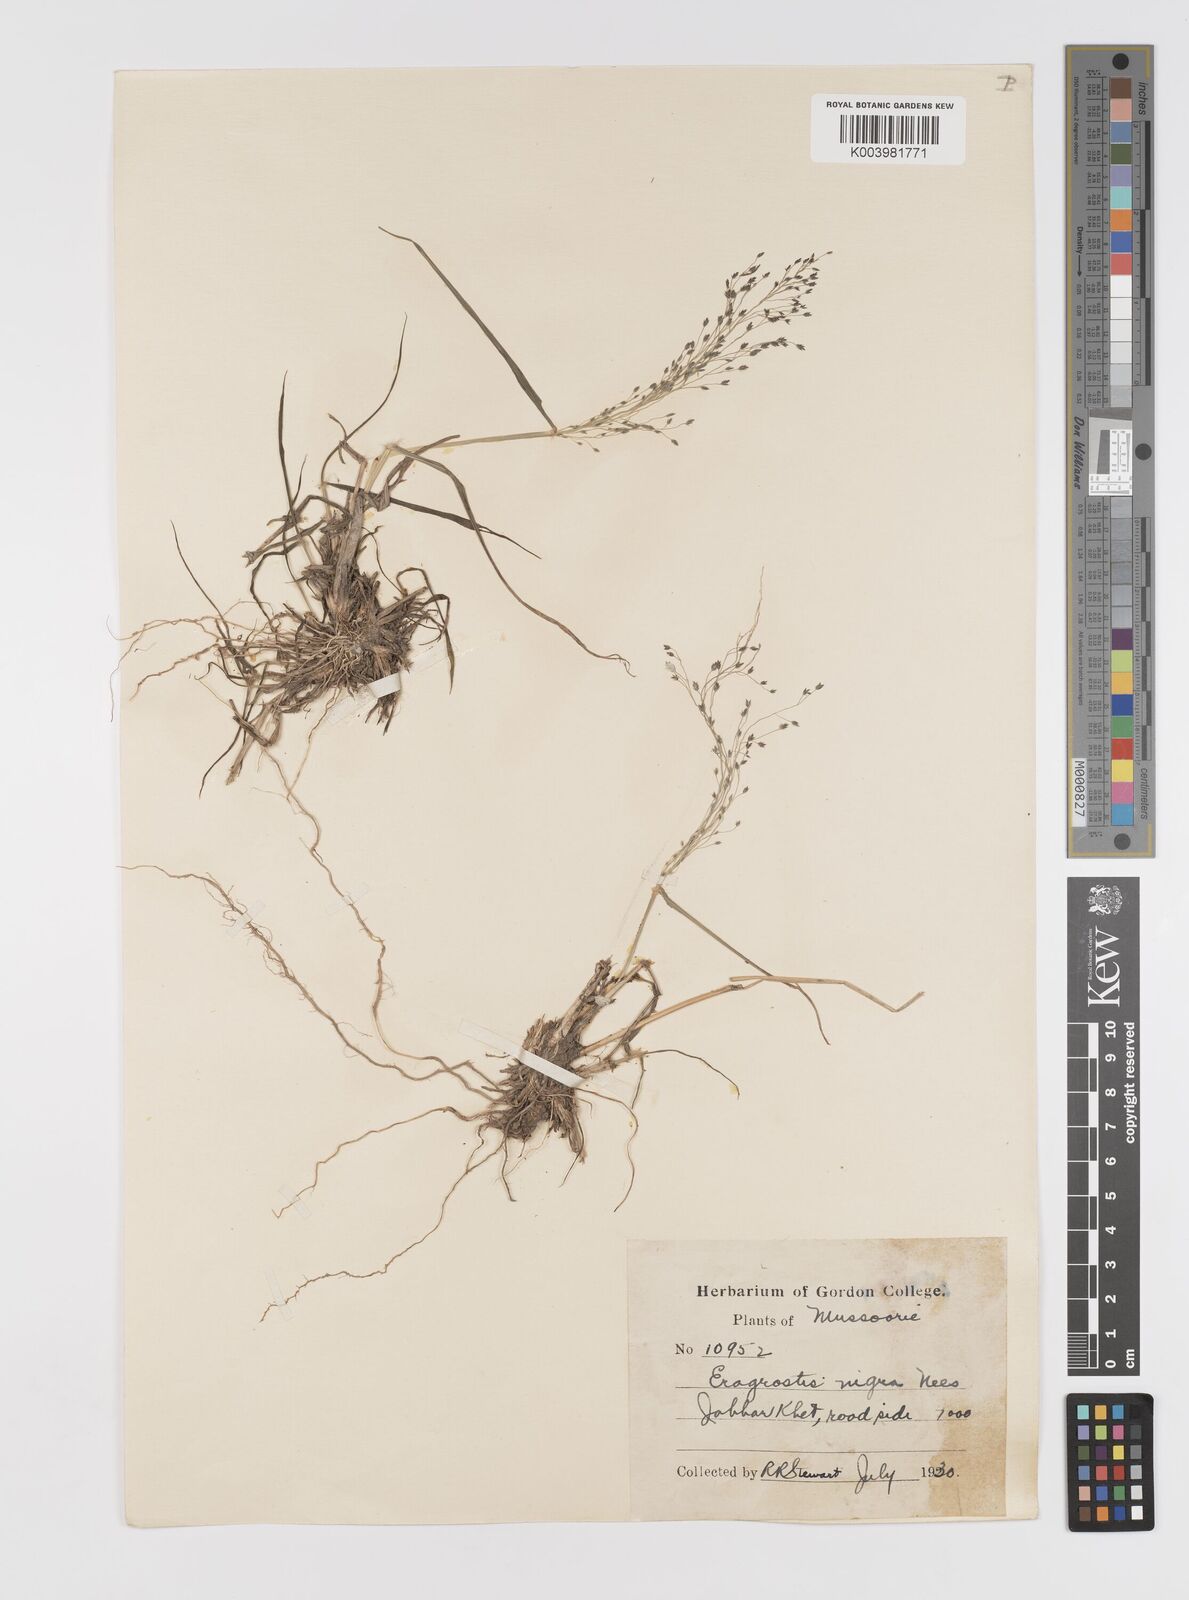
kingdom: Plantae
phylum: Tracheophyta
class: Liliopsida
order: Poales
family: Poaceae
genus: Eragrostis
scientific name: Eragrostis nigra
